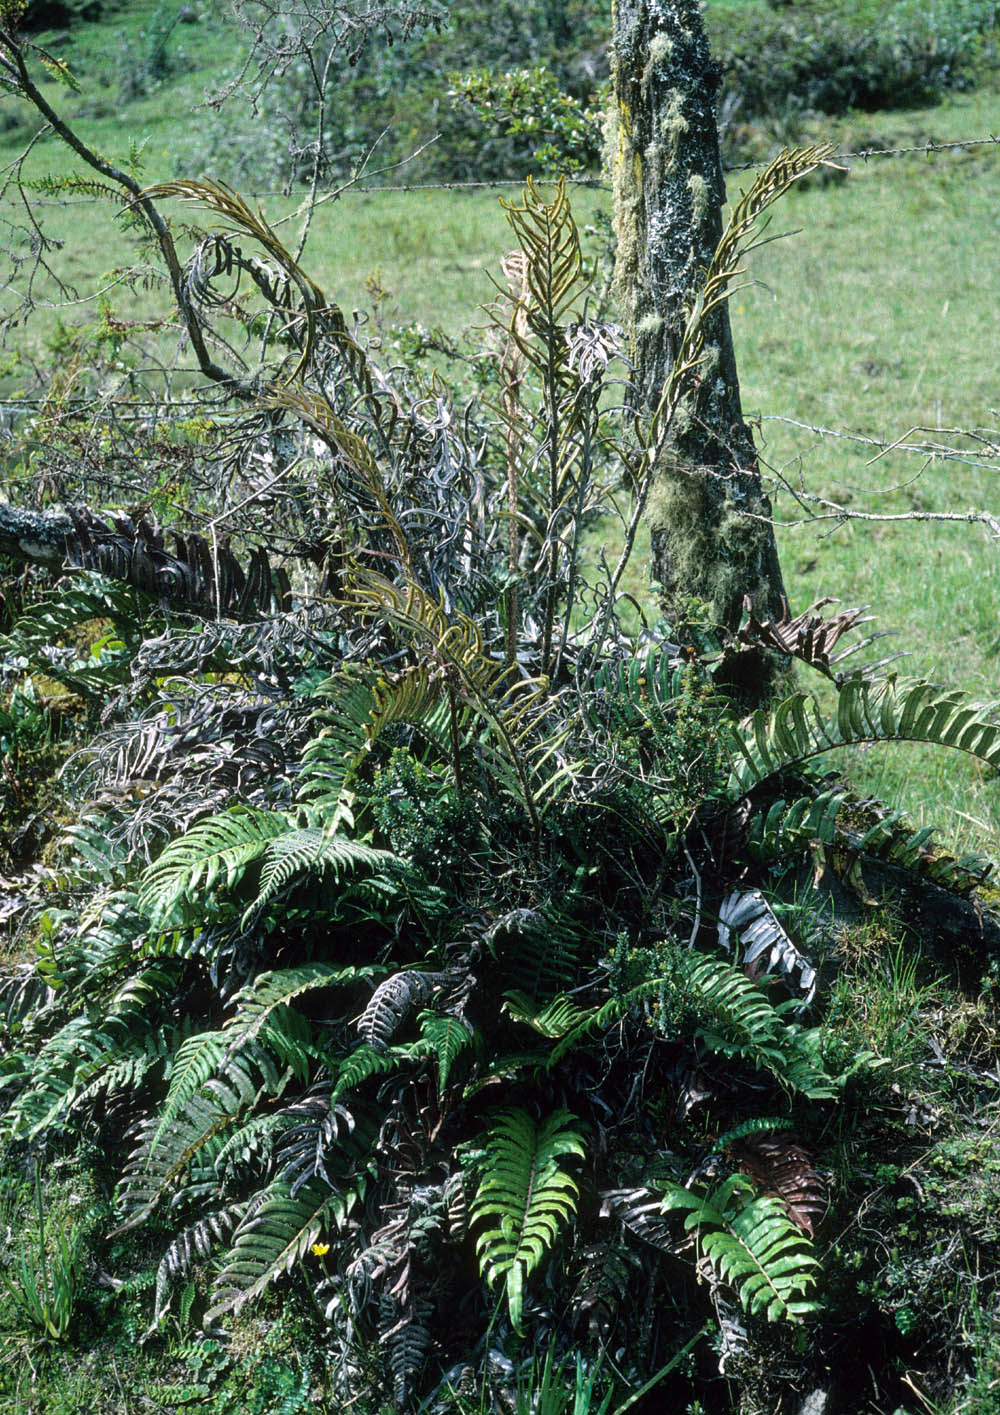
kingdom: Plantae
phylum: Tracheophyta
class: Polypodiopsida
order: Polypodiales
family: Blechnaceae
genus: Parablechnum
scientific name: Parablechnum chilense
